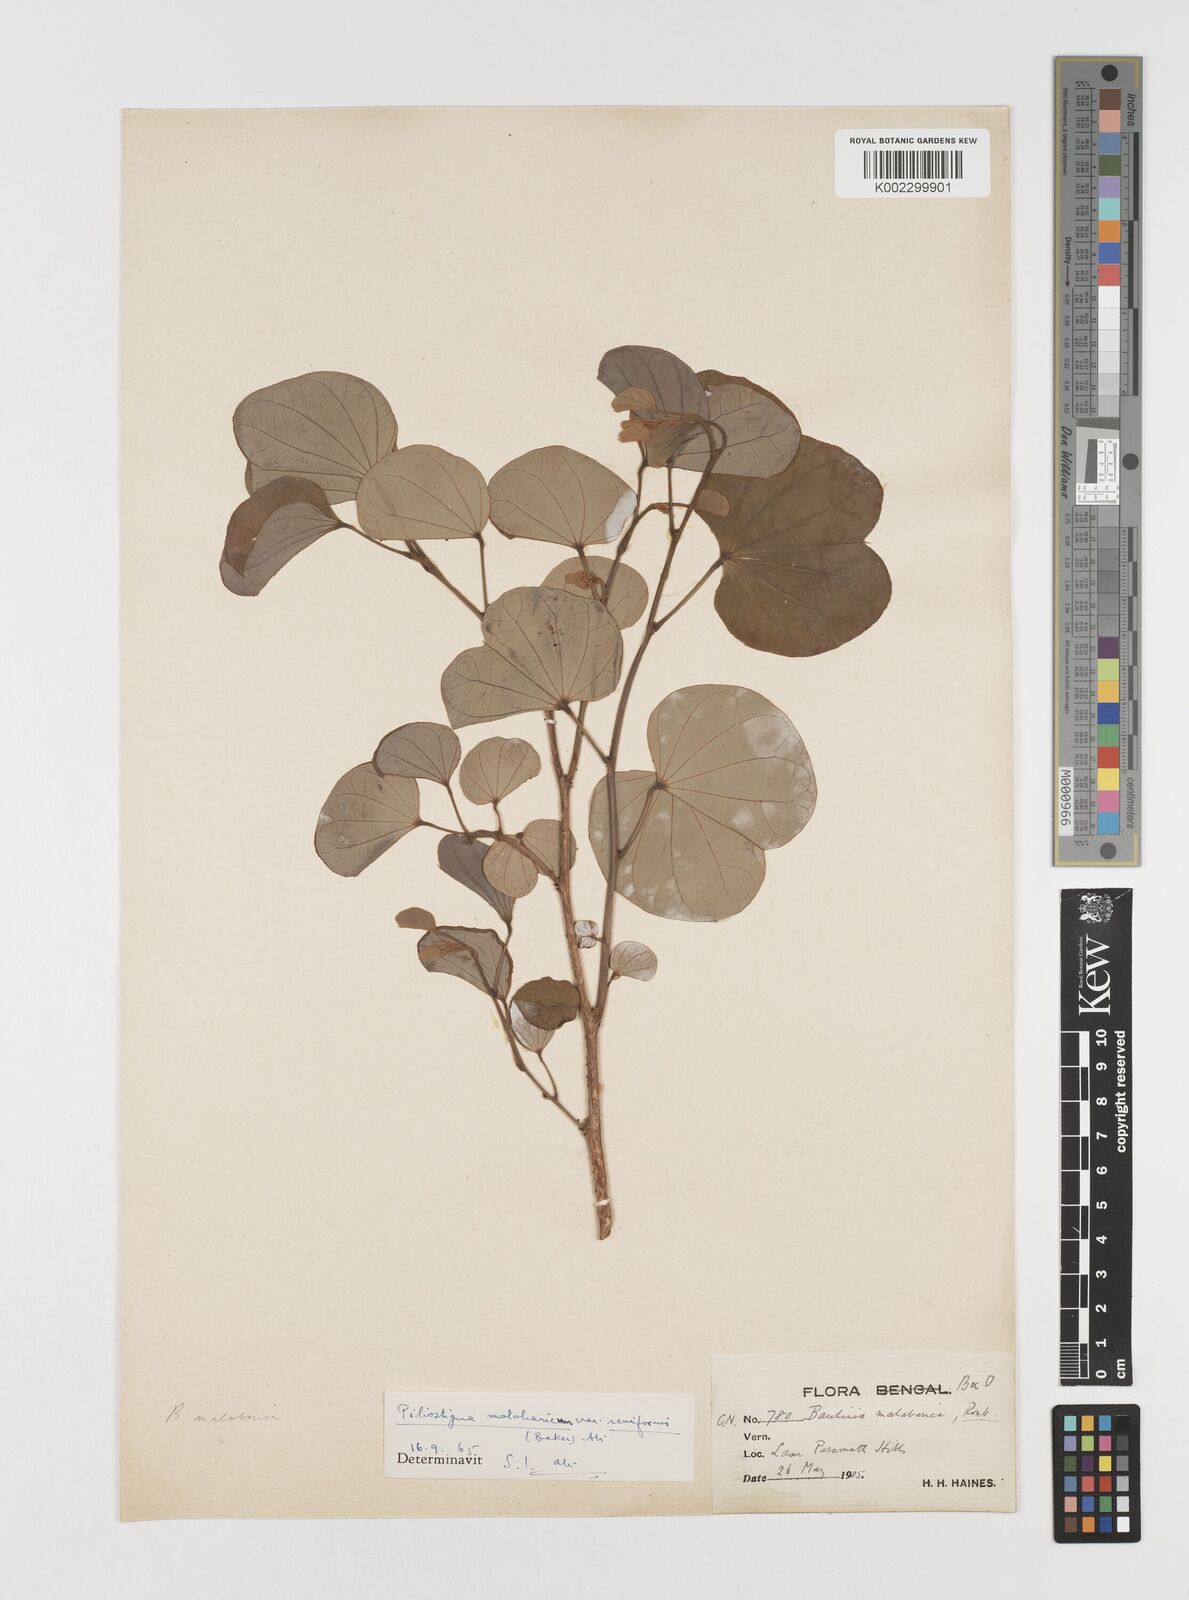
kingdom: Plantae
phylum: Tracheophyta
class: Magnoliopsida
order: Fabales
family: Fabaceae
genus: Piliostigma
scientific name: Piliostigma malabaricum
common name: Malabar bauhinia
